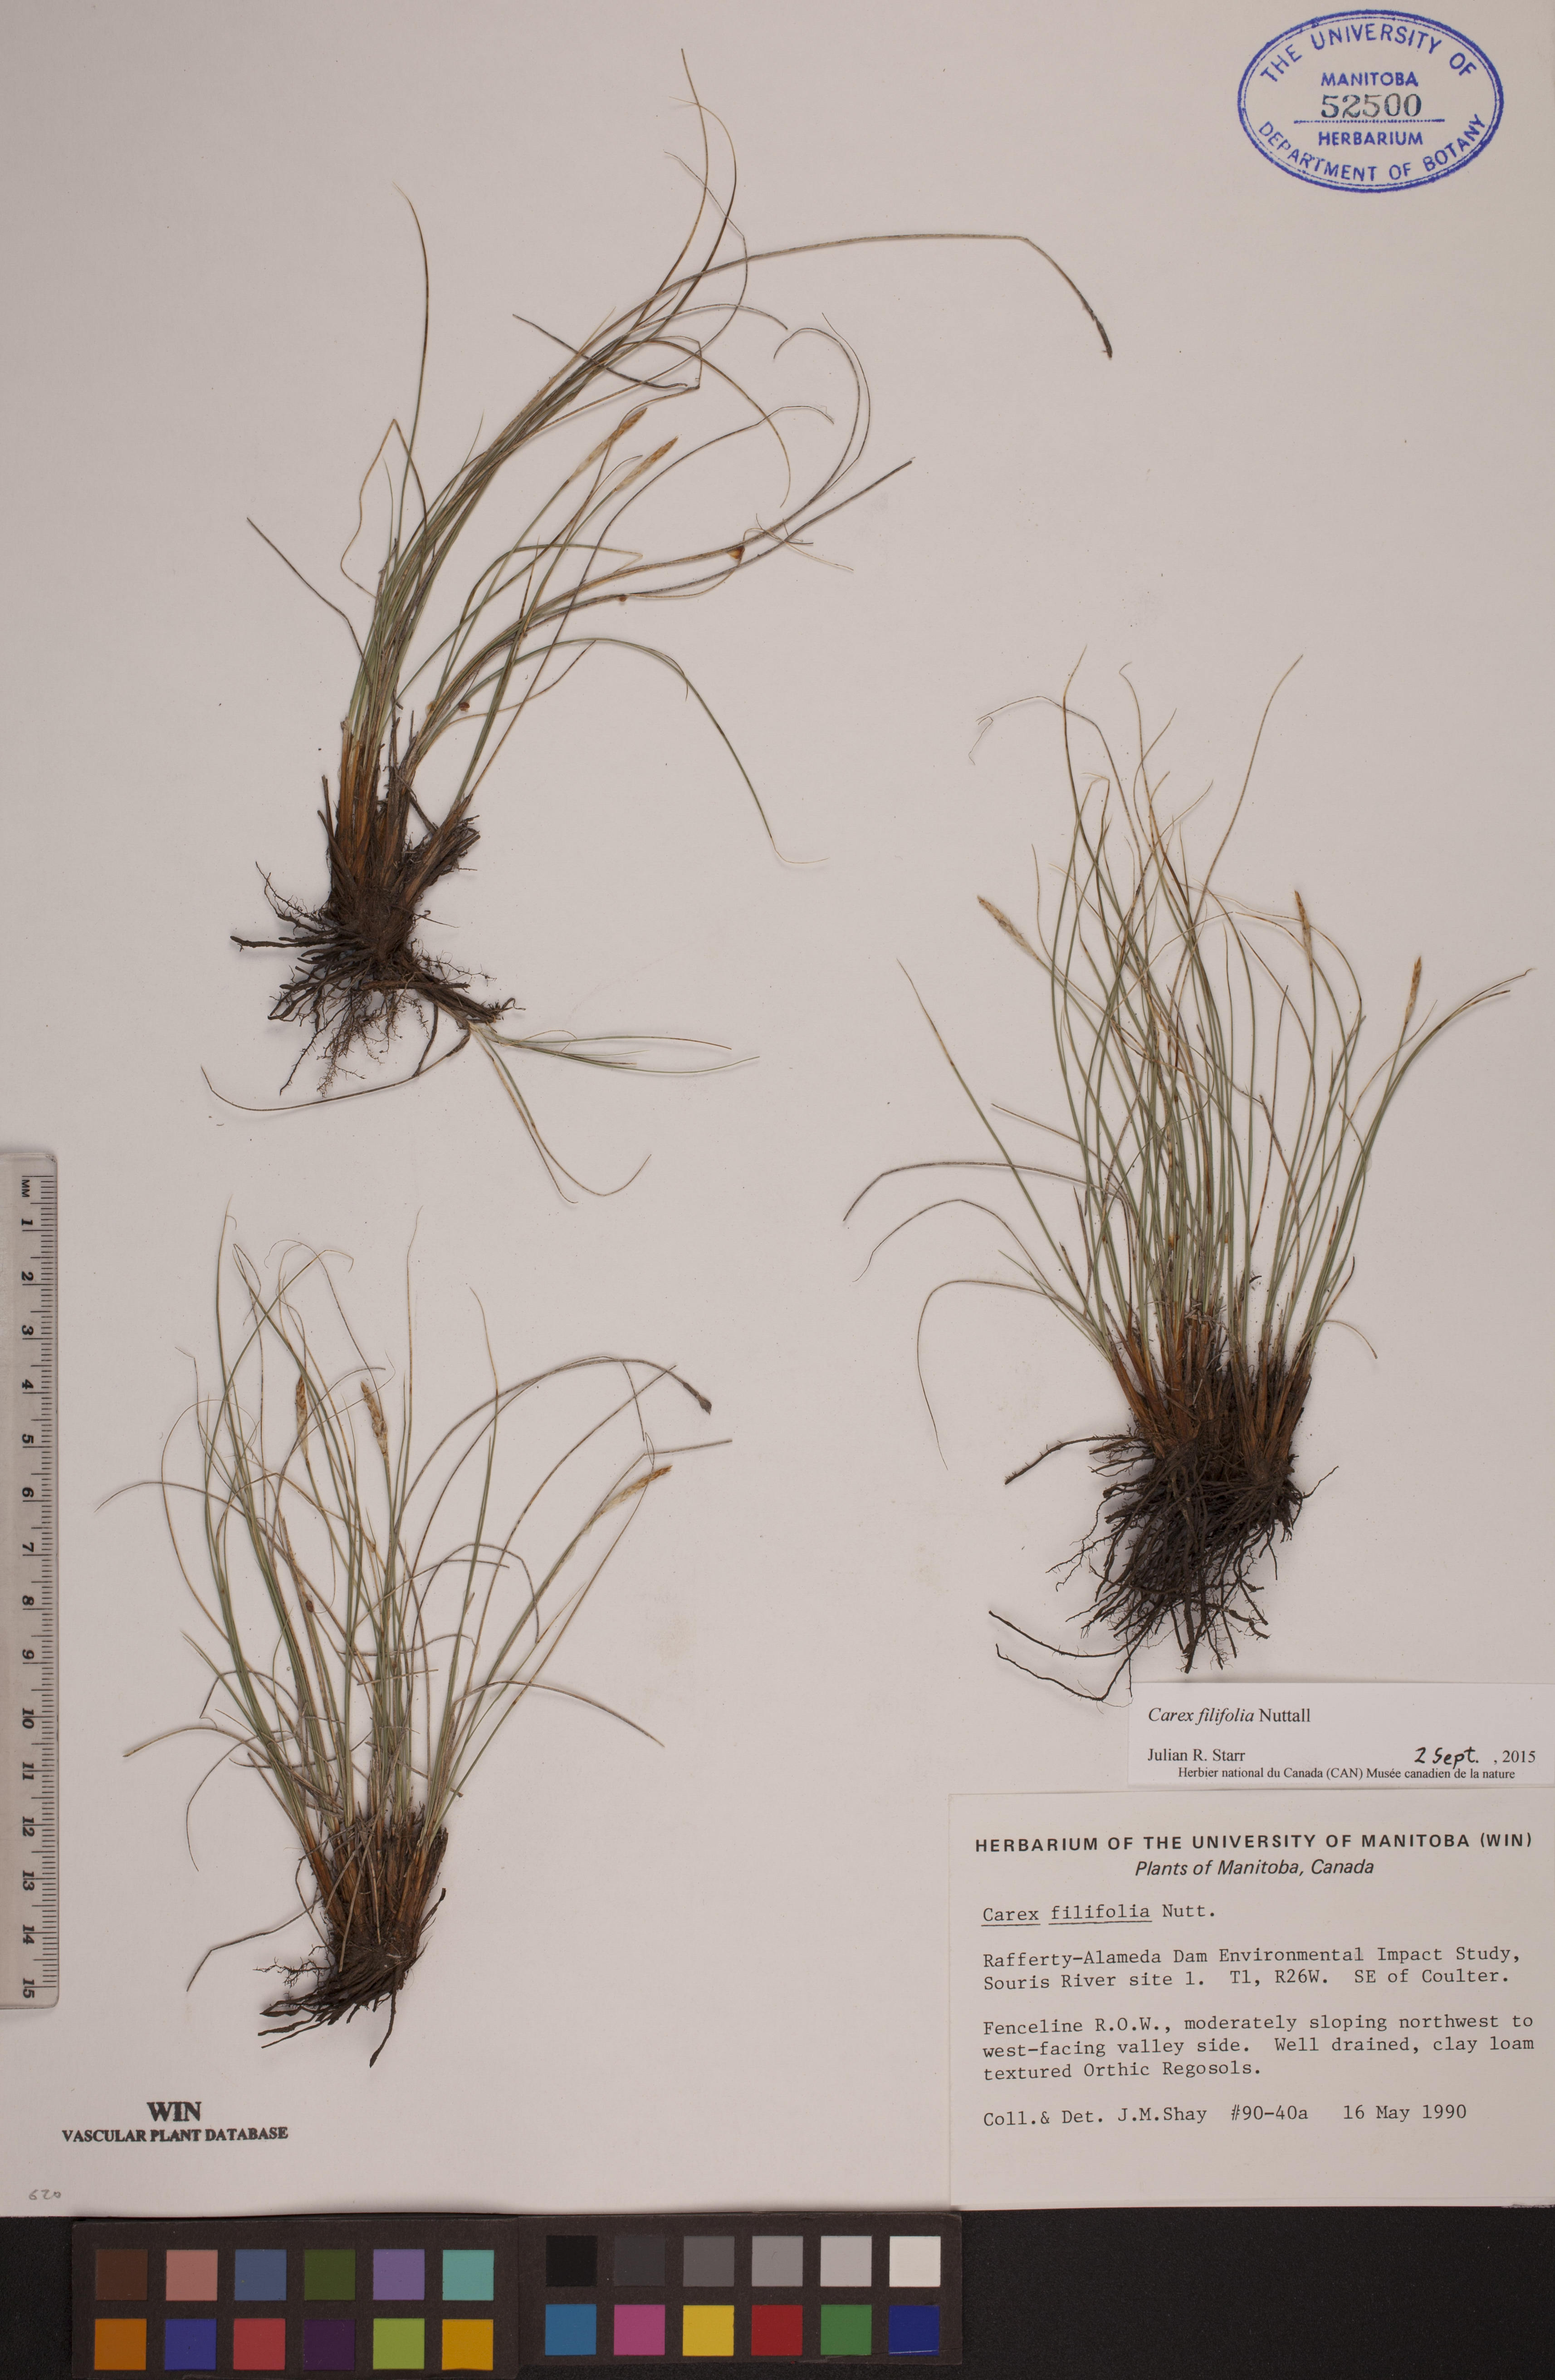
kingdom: Plantae
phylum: Tracheophyta
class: Liliopsida
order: Poales
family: Cyperaceae
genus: Carex
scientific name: Carex filifolia
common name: Threadleaf sedge
